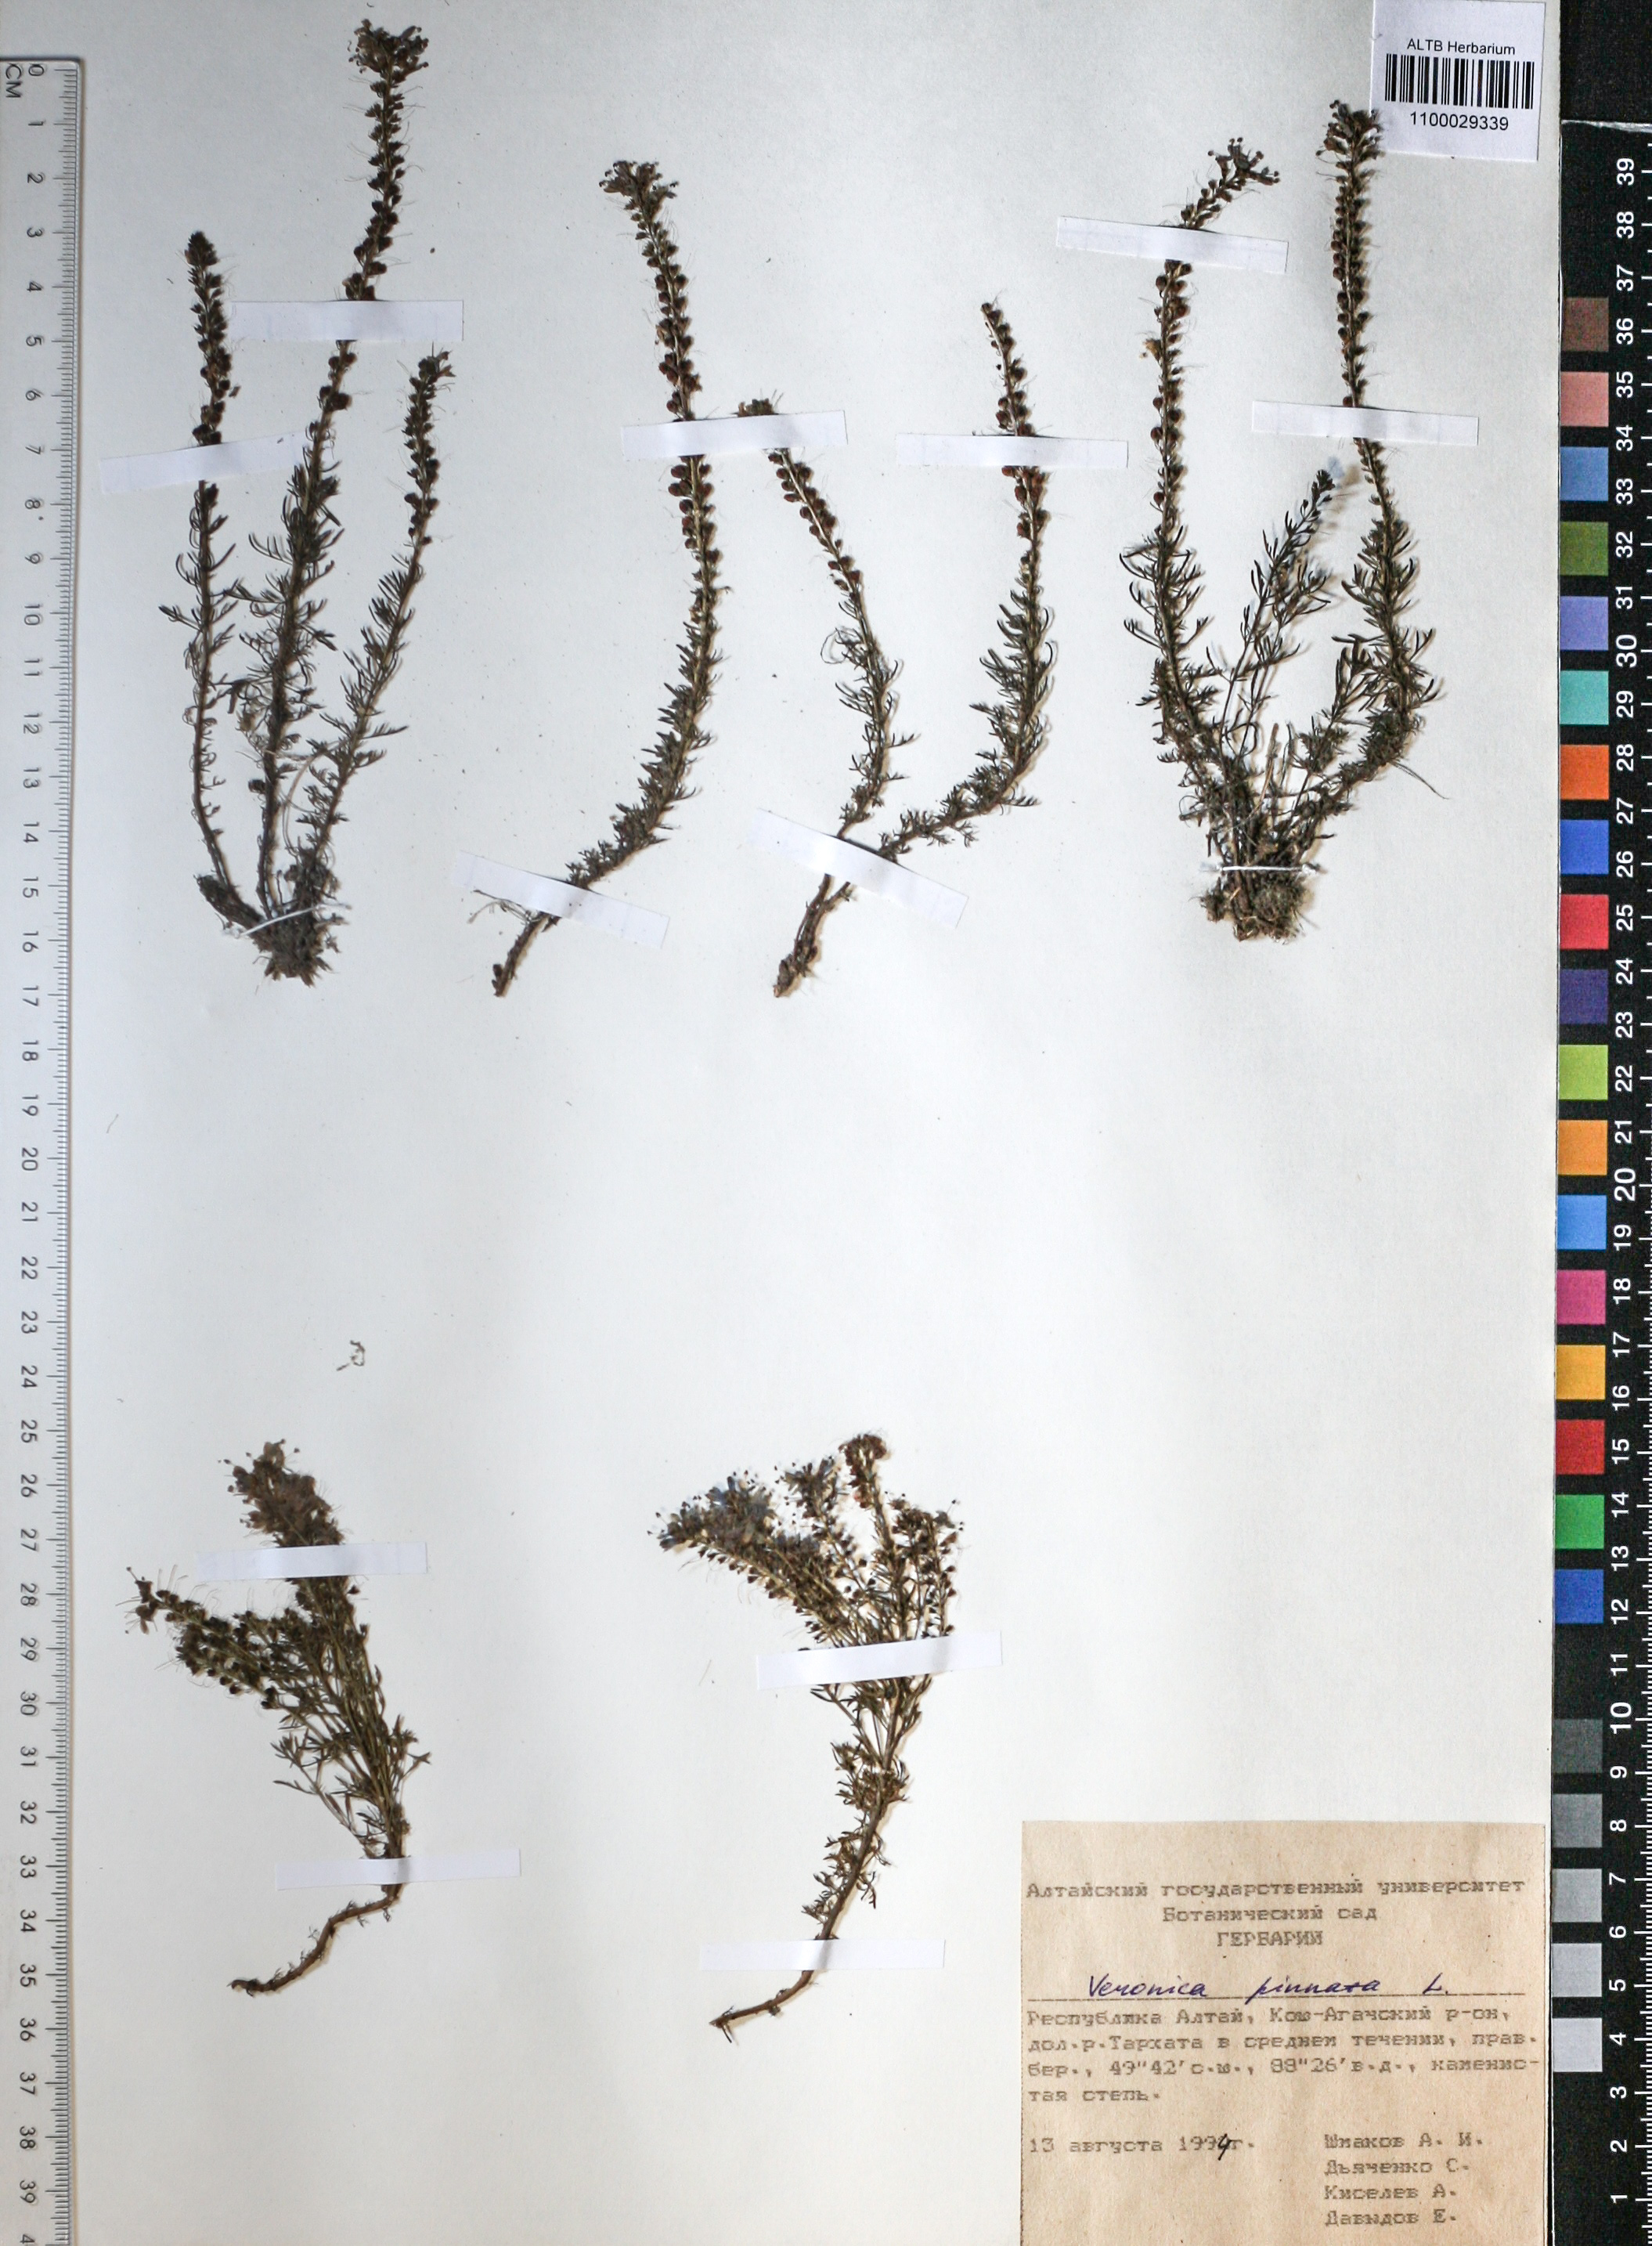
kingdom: Plantae
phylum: Tracheophyta
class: Magnoliopsida
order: Lamiales
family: Plantaginaceae
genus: Veronica
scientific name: Veronica pinnata
